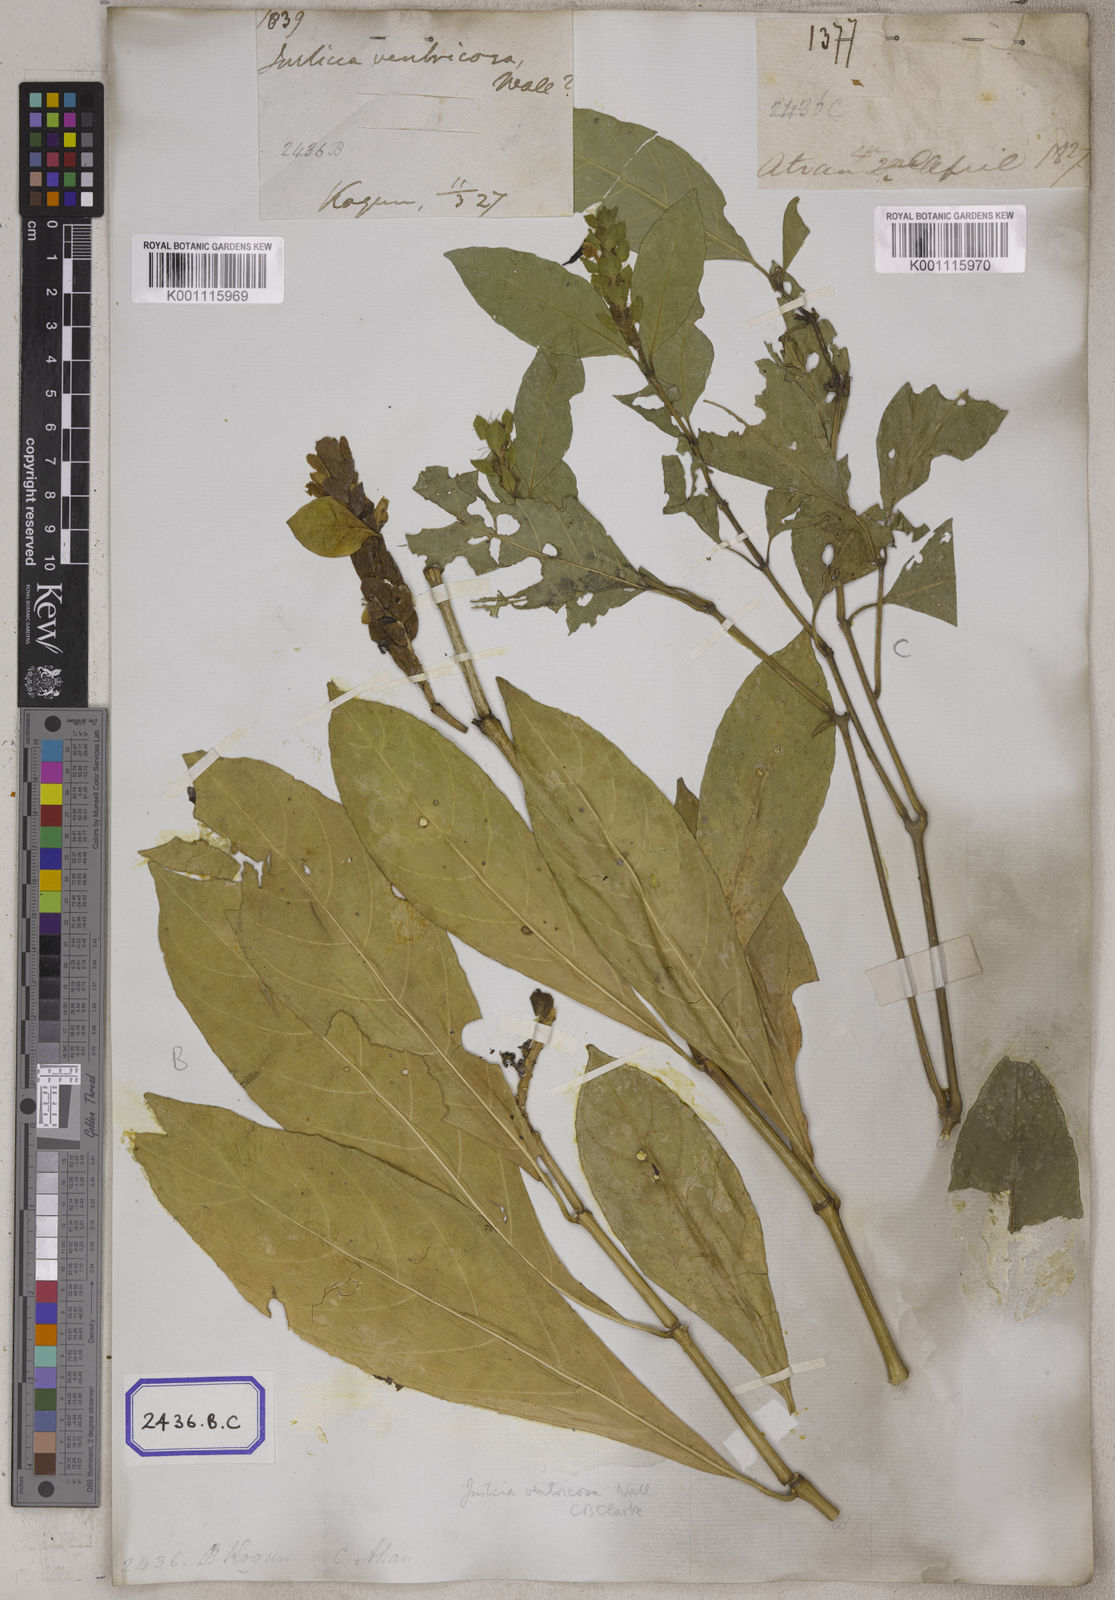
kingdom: Plantae
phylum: Tracheophyta
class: Magnoliopsida
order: Lamiales
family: Acanthaceae
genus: Justicia
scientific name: Justicia
